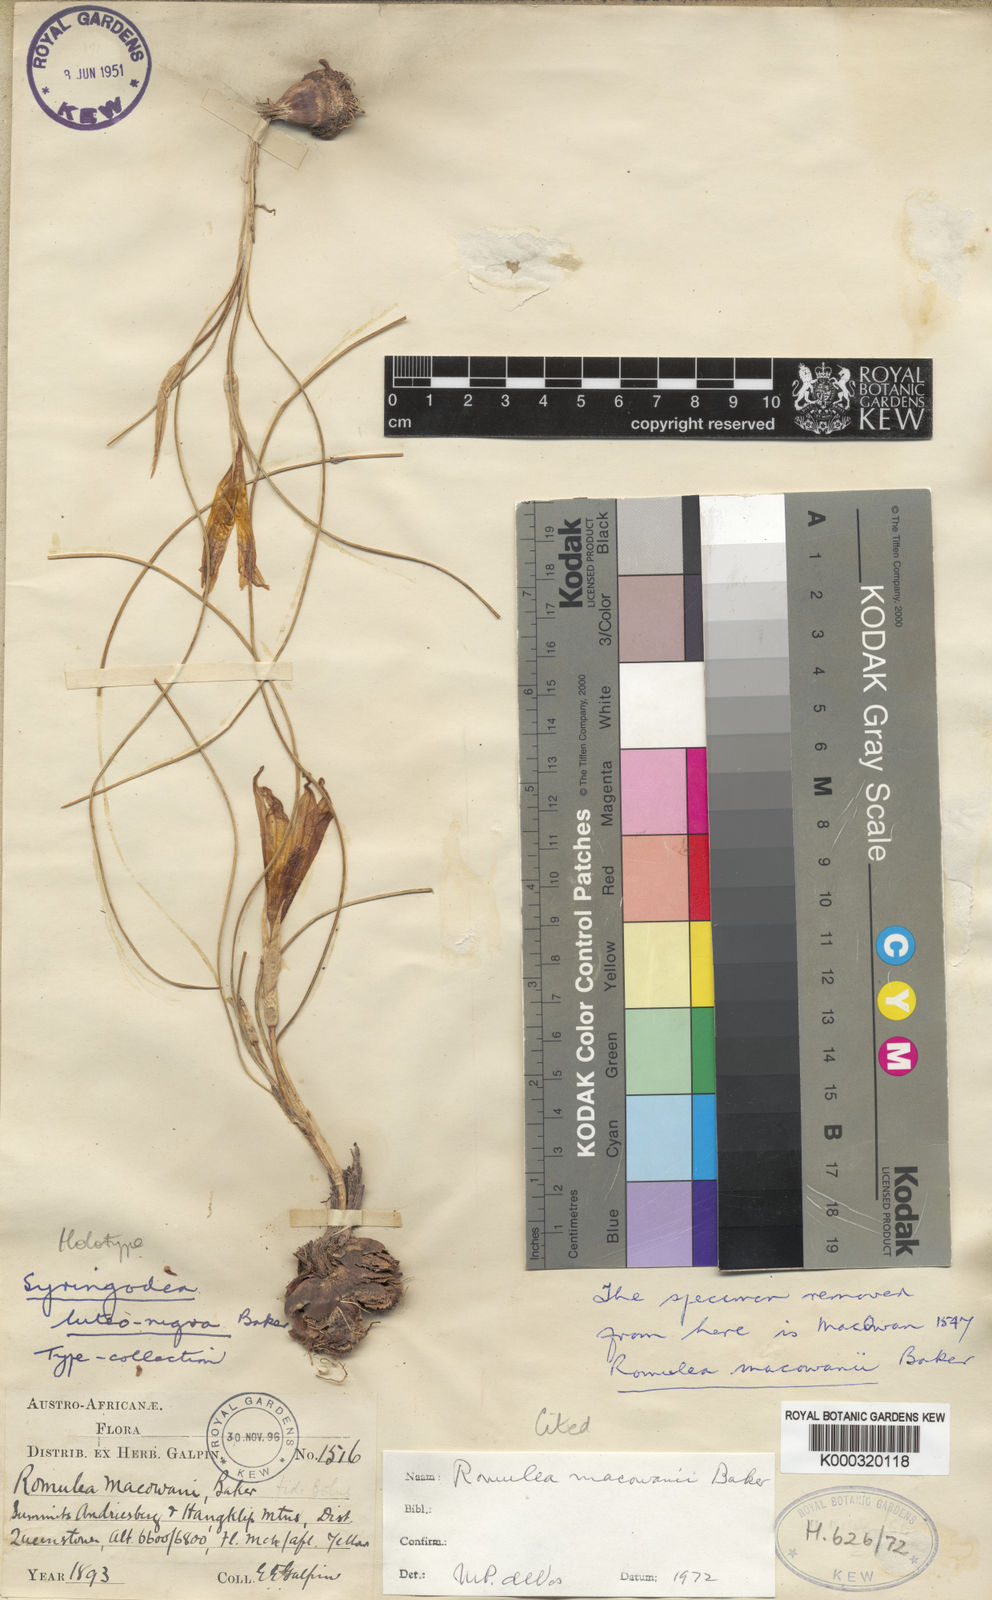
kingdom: Plantae
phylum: Tracheophyta
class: Liliopsida
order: Asparagales
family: Iridaceae
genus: Romulea
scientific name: Romulea macowanii
